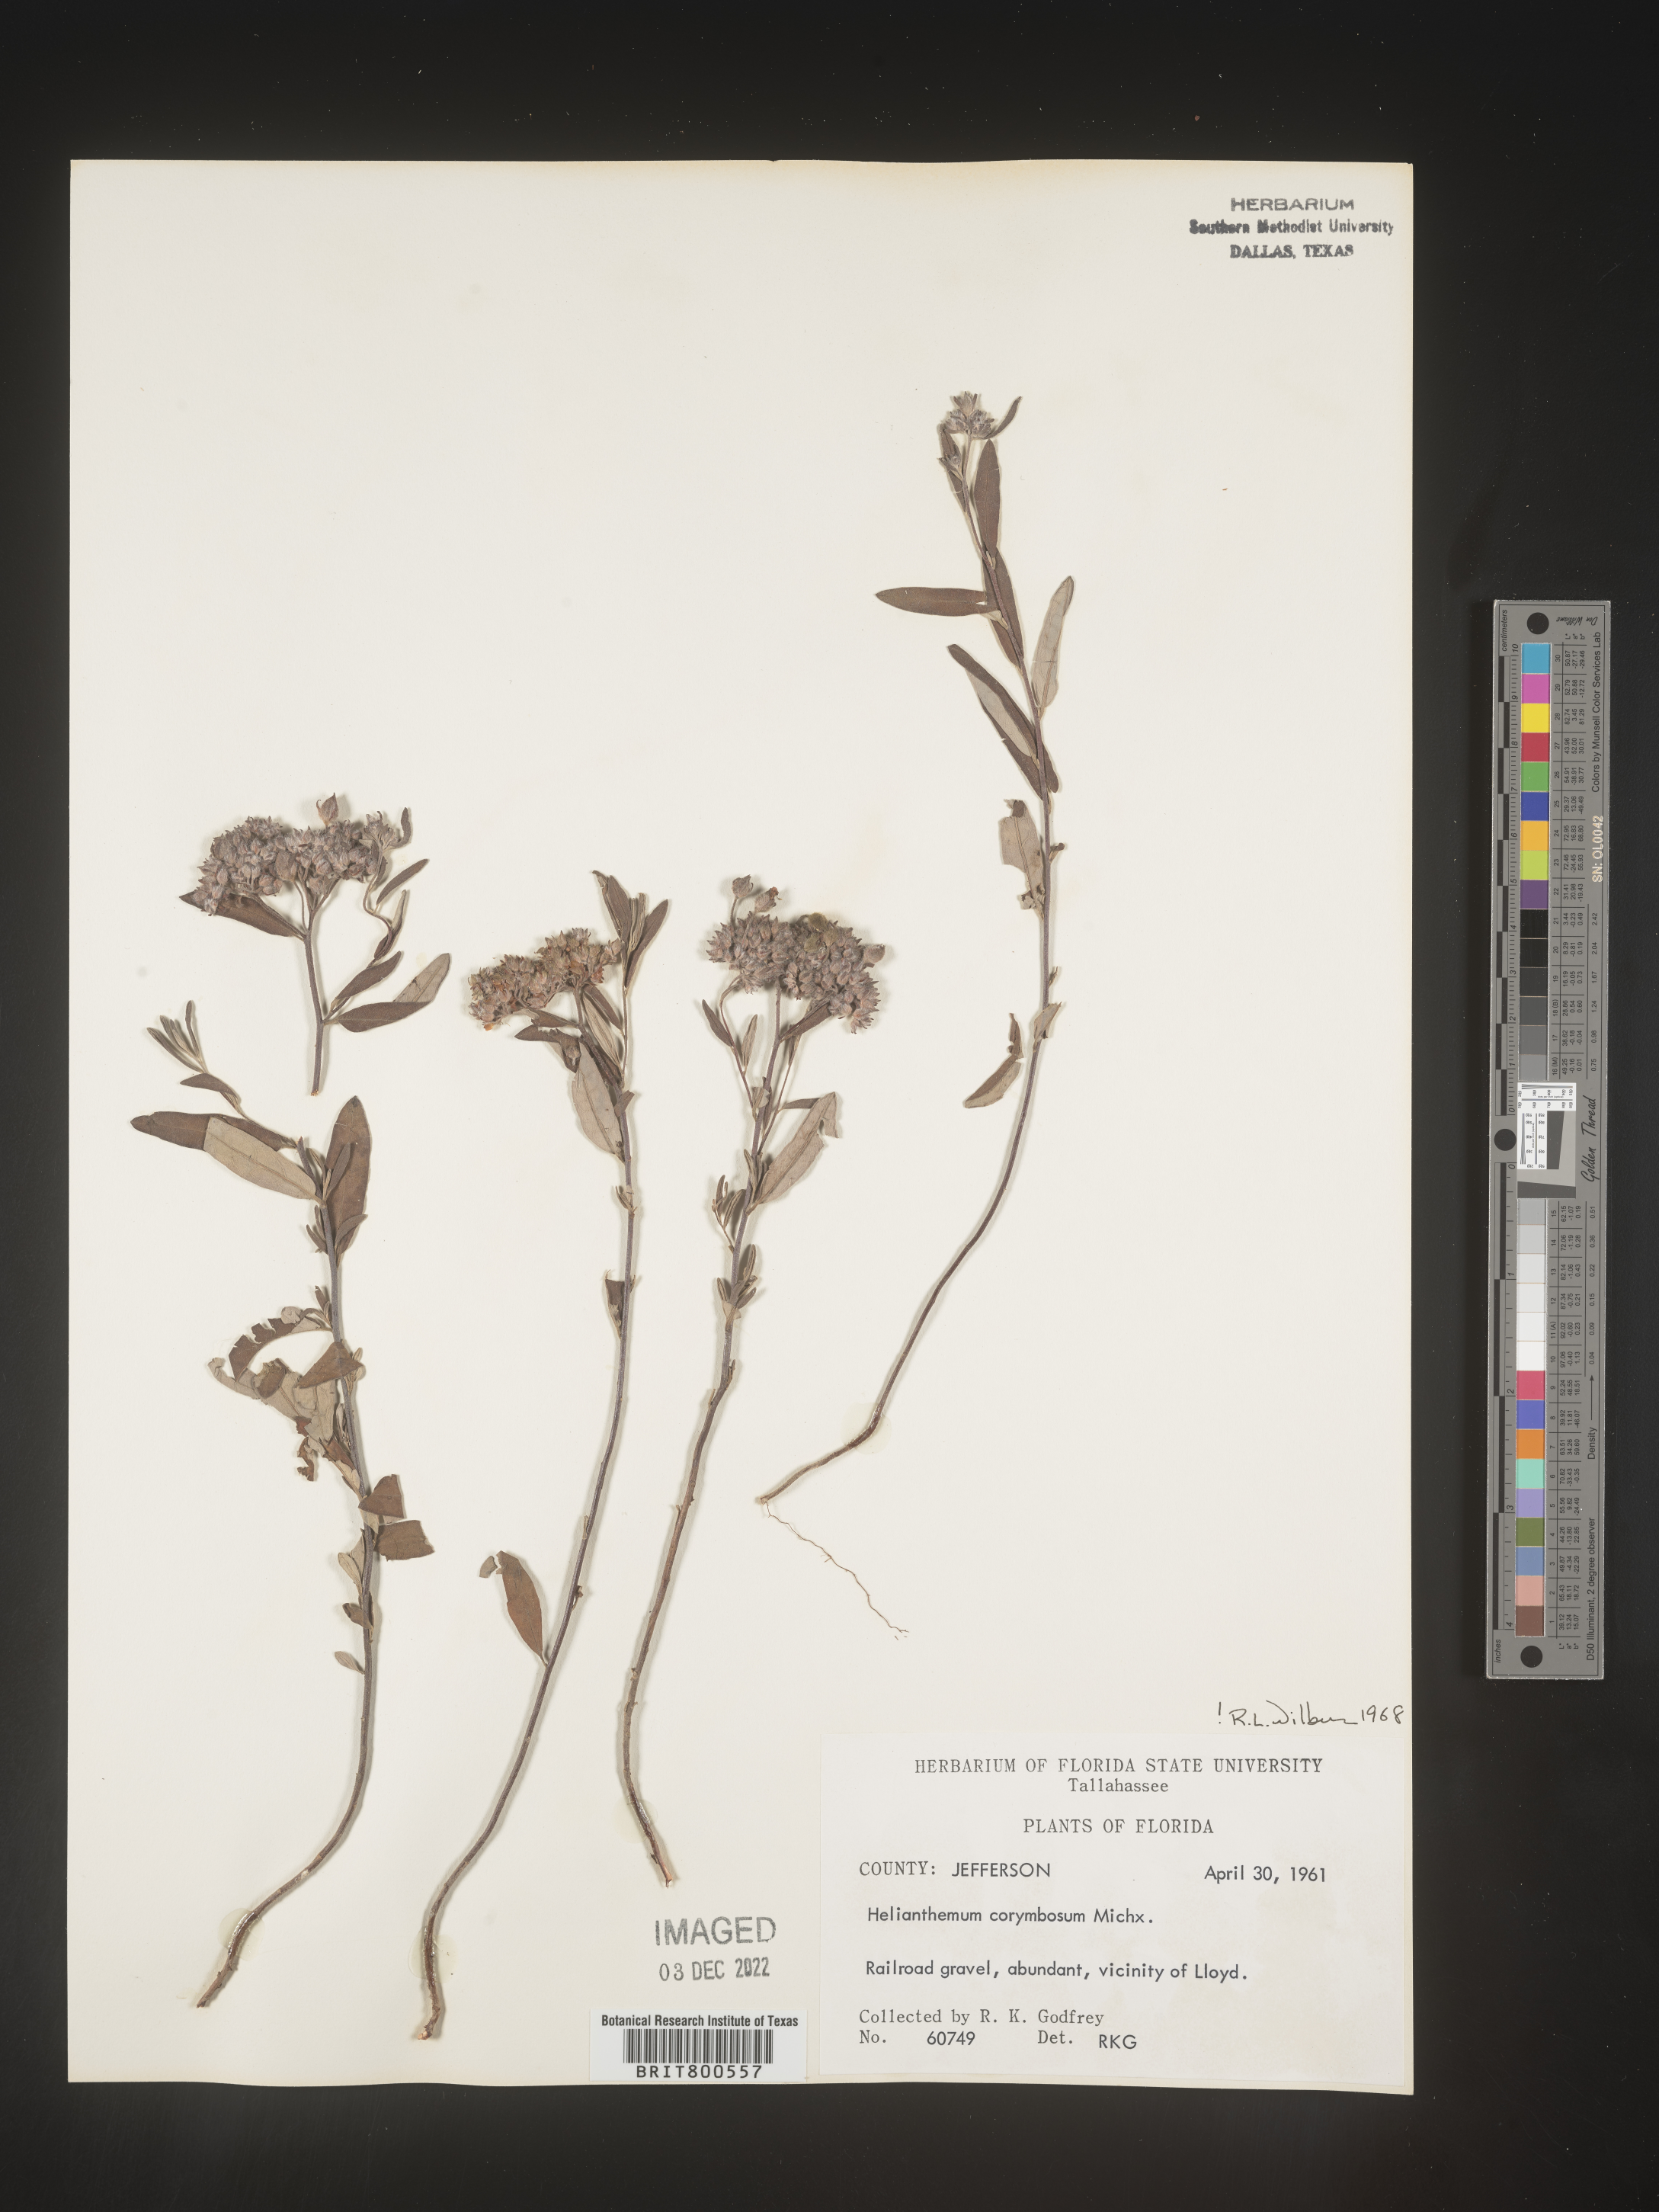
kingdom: Plantae
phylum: Tracheophyta
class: Magnoliopsida
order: Malvales
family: Cistaceae
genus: Crocanthemum
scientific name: Crocanthemum corymbosum
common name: Pinebarren sun-rose
